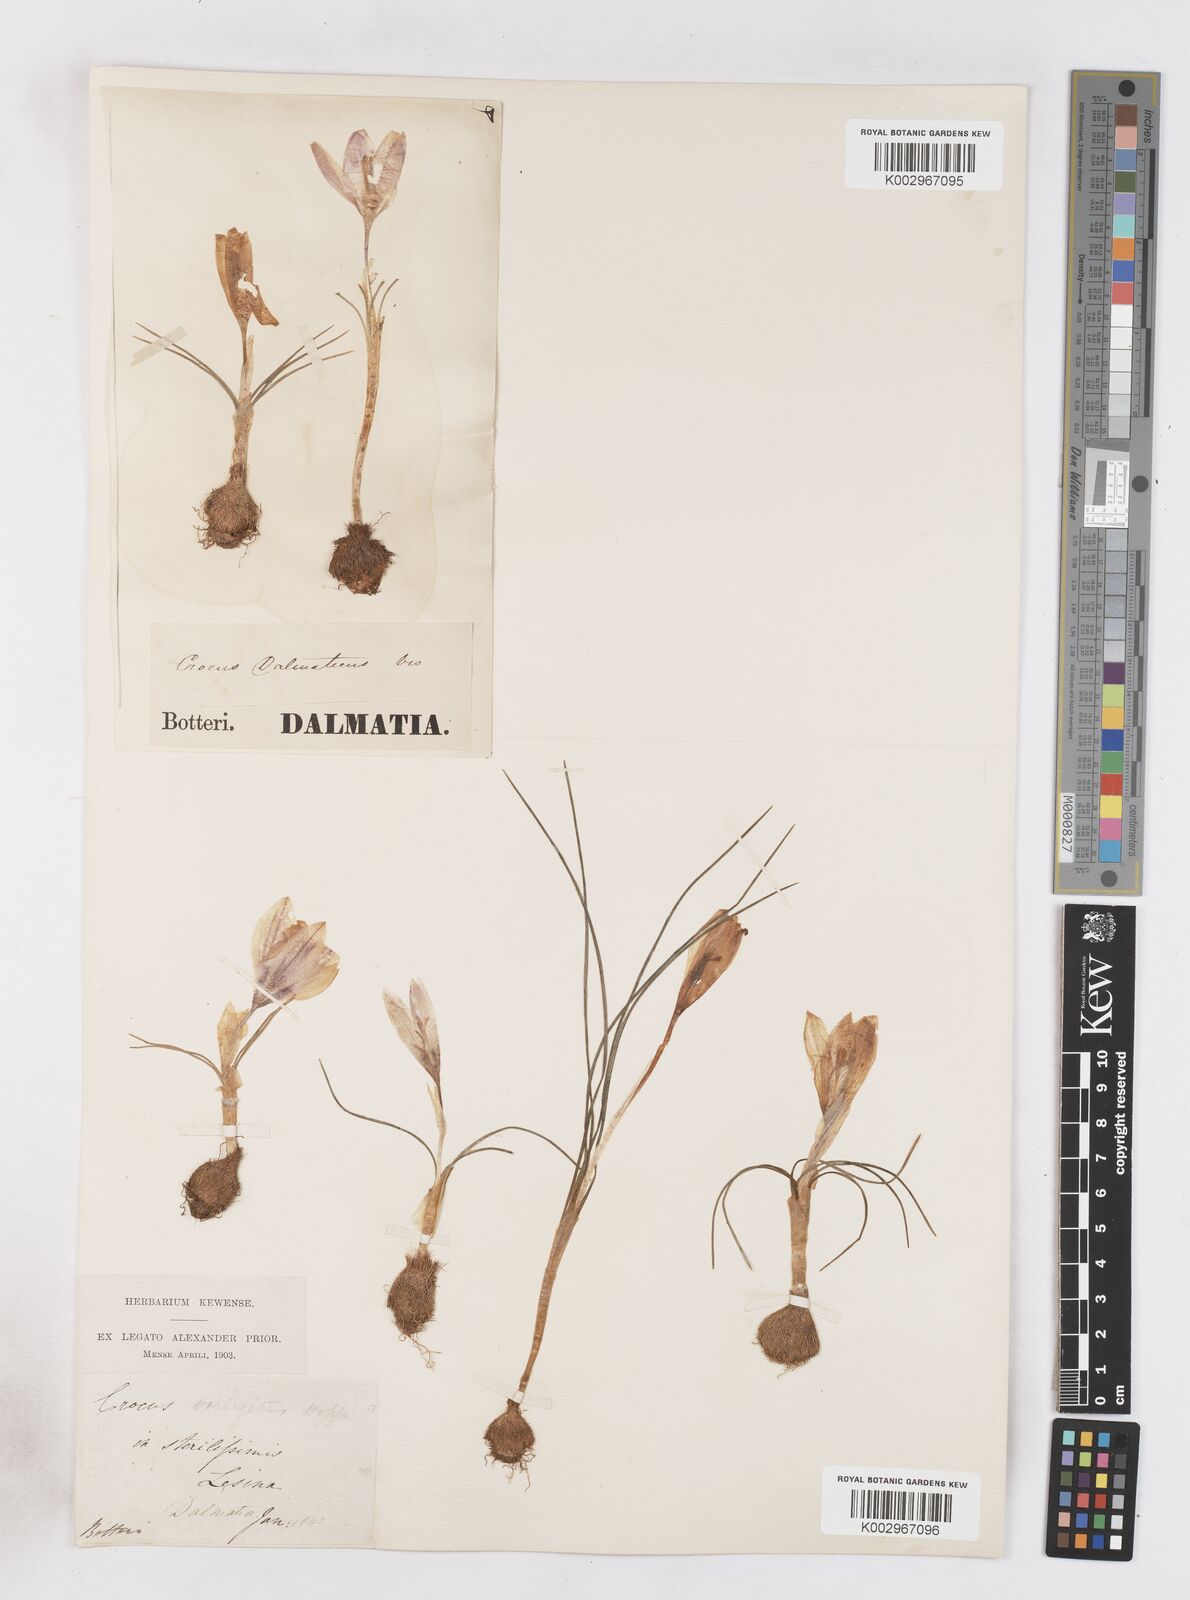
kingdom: Plantae
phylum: Tracheophyta
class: Liliopsida
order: Asparagales
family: Iridaceae
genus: Crocus
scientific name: Crocus dalmaticus
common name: Dalmatian saffron
